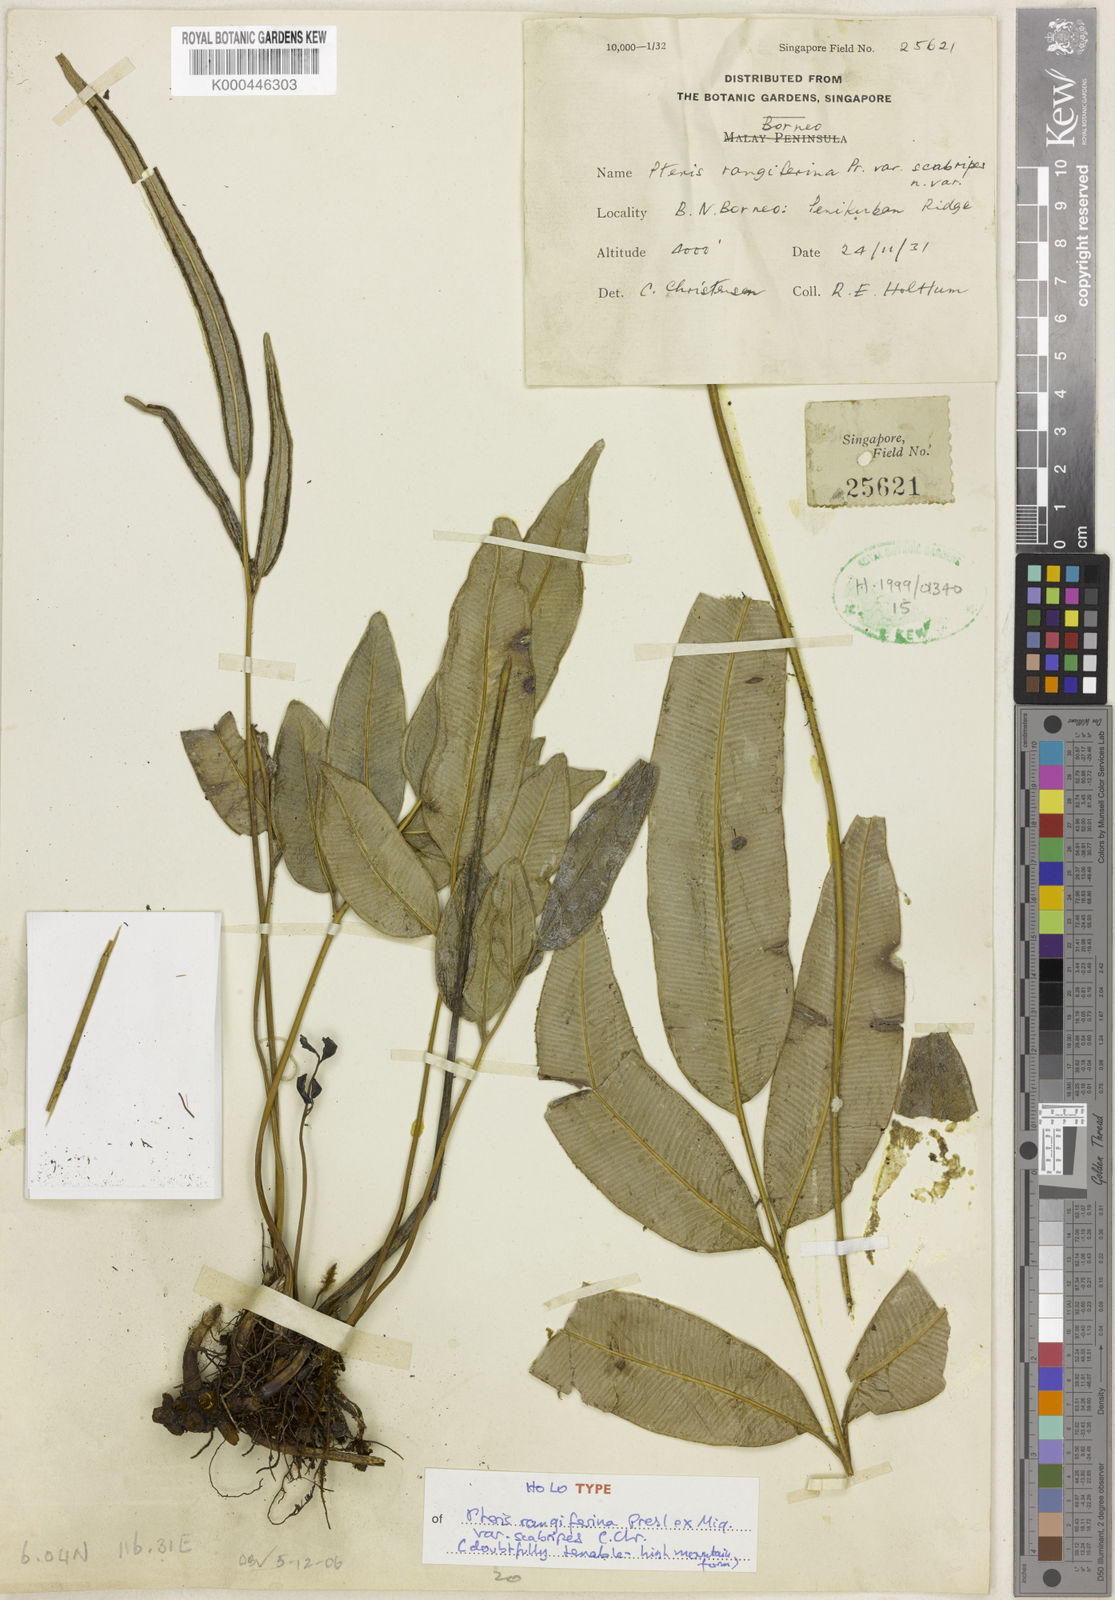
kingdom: Plantae
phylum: Tracheophyta
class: Polypodiopsida
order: Polypodiales
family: Pteridaceae
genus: Pteris
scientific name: Pteris
